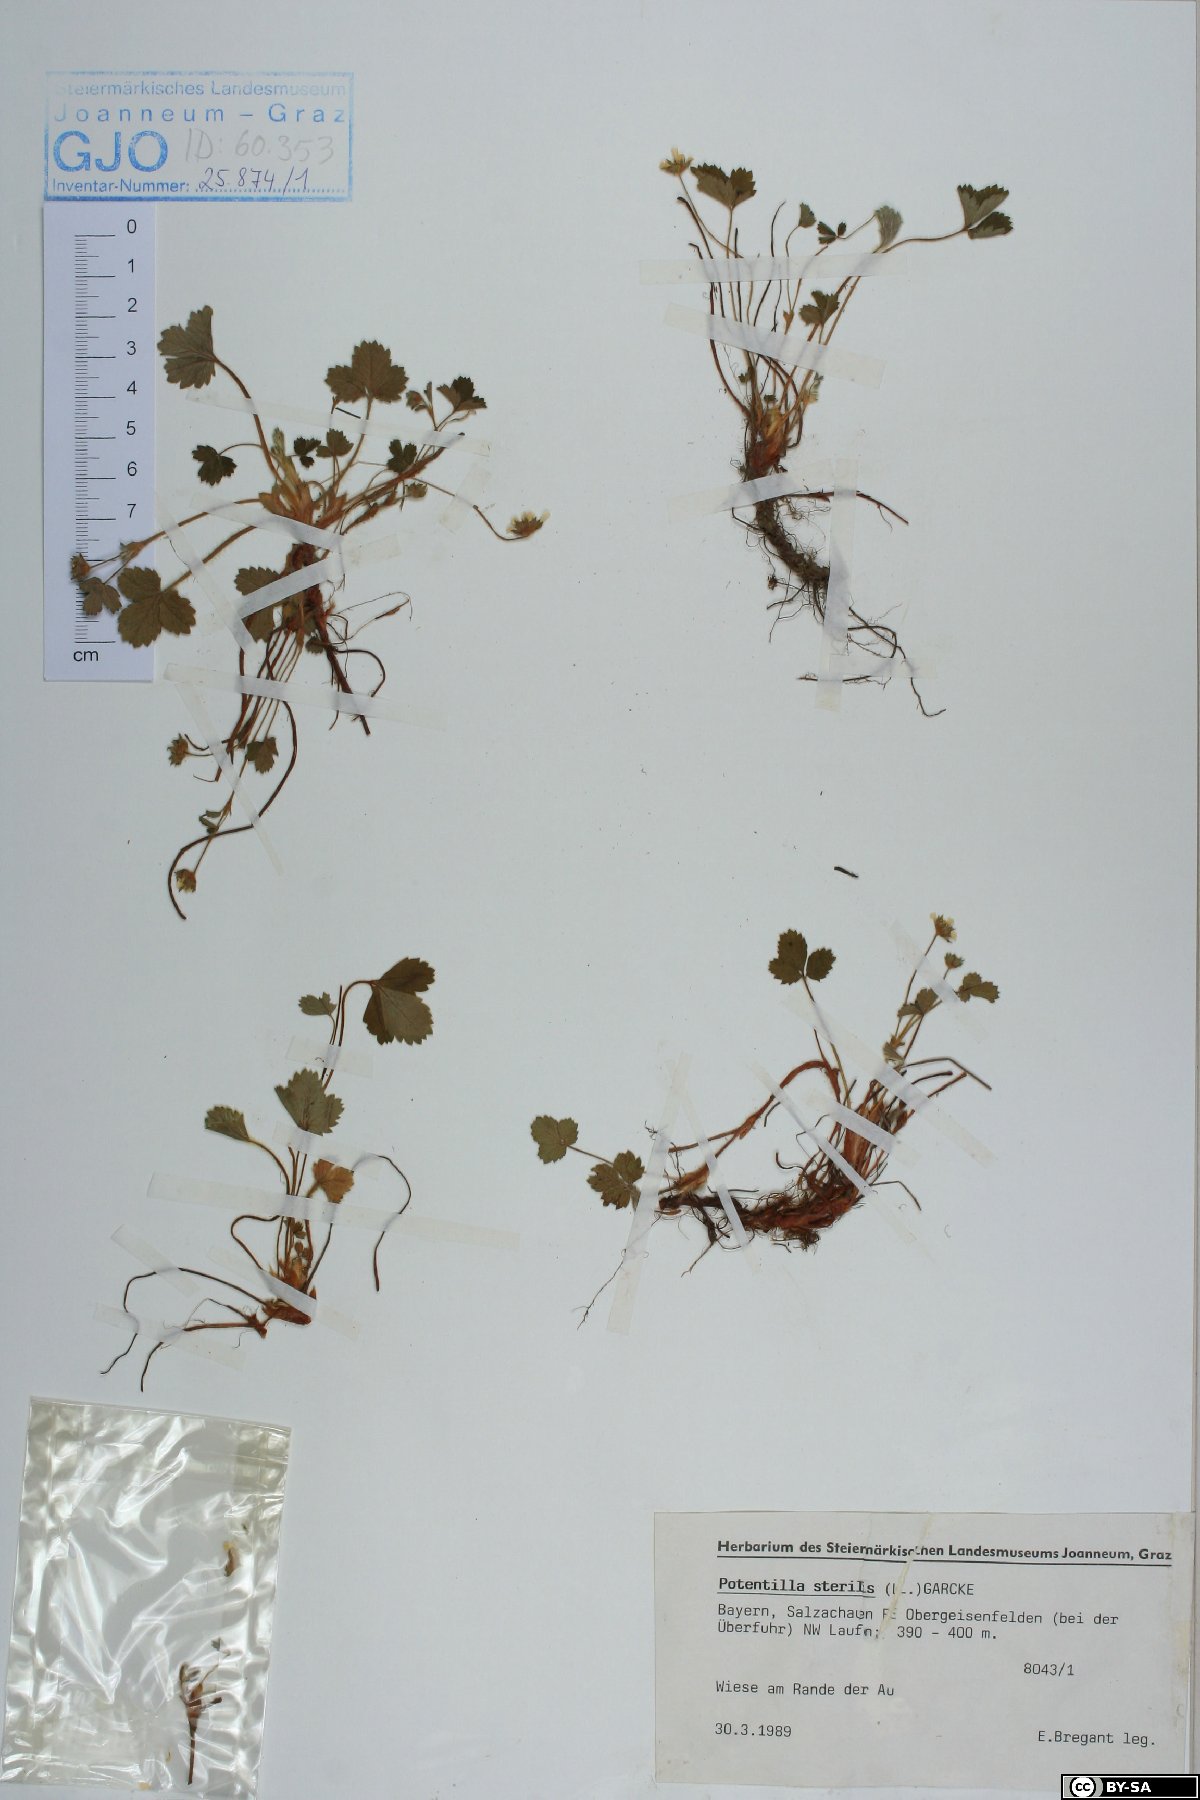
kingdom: Plantae
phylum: Tracheophyta
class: Magnoliopsida
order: Rosales
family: Rosaceae
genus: Potentilla
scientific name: Potentilla sterilis
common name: Barren strawberry
